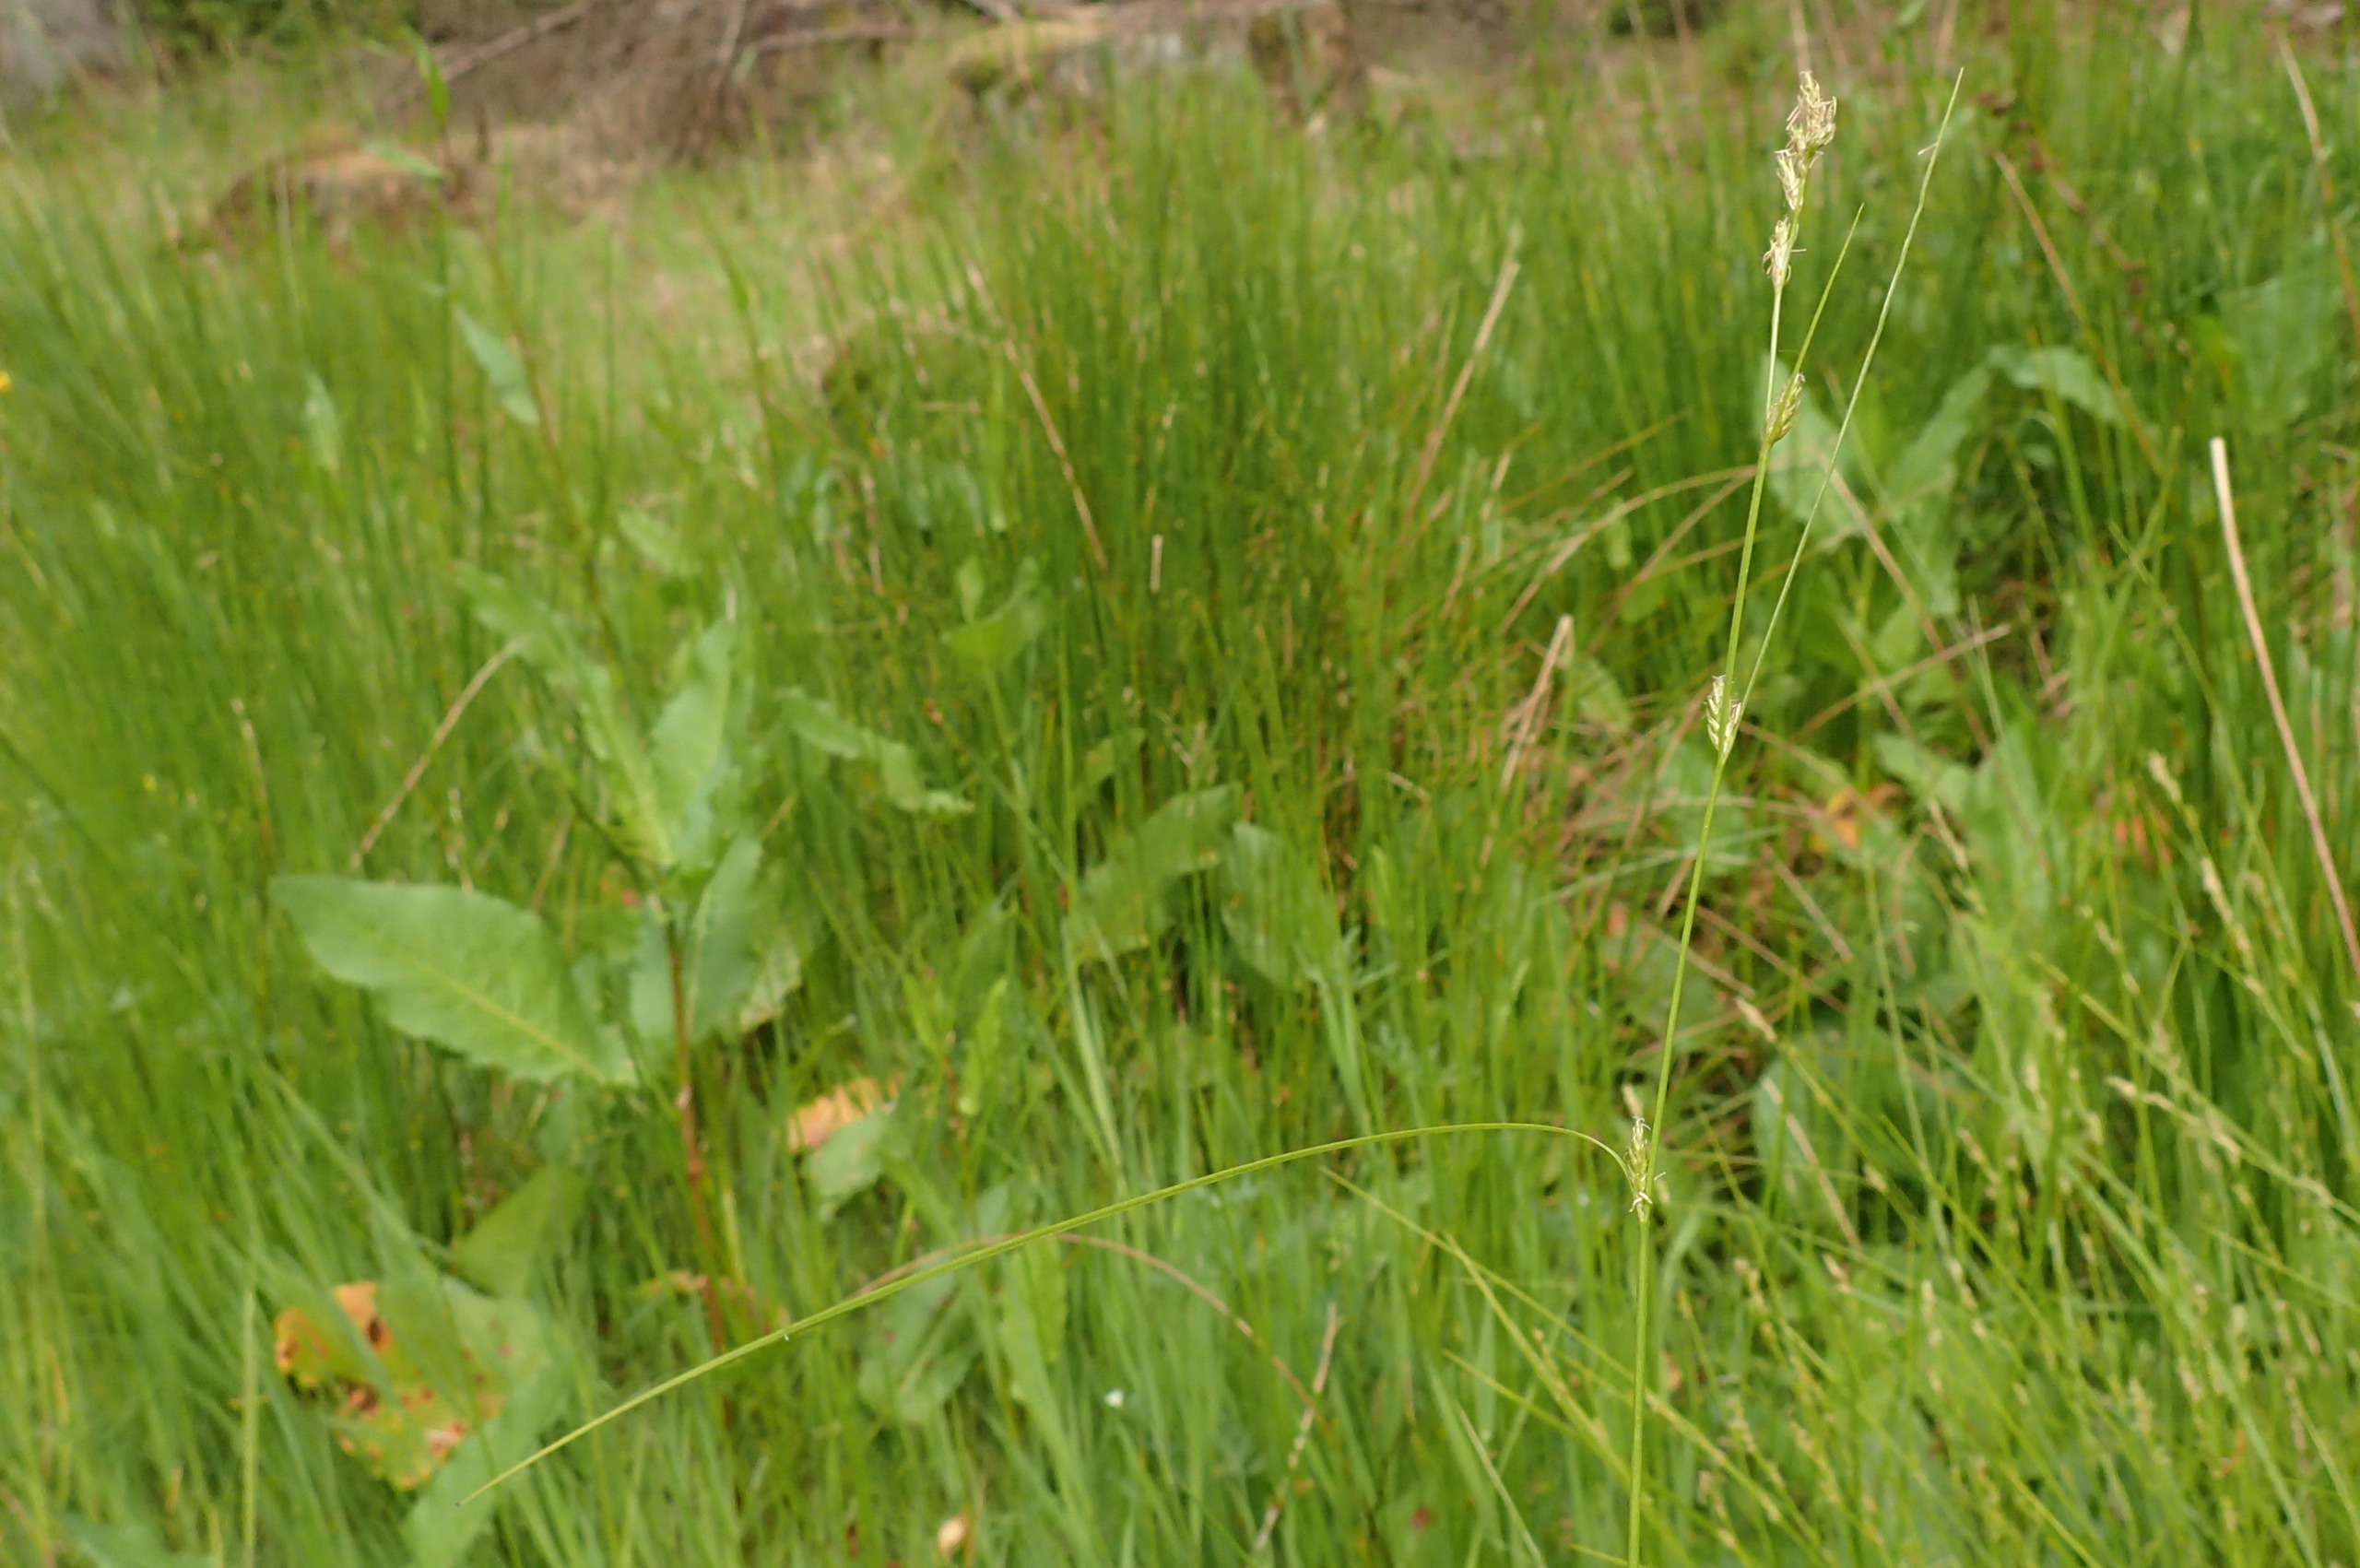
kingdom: Plantae
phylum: Tracheophyta
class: Liliopsida
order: Poales
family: Cyperaceae
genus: Carex
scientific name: Carex remota
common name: Akselblomstret star
